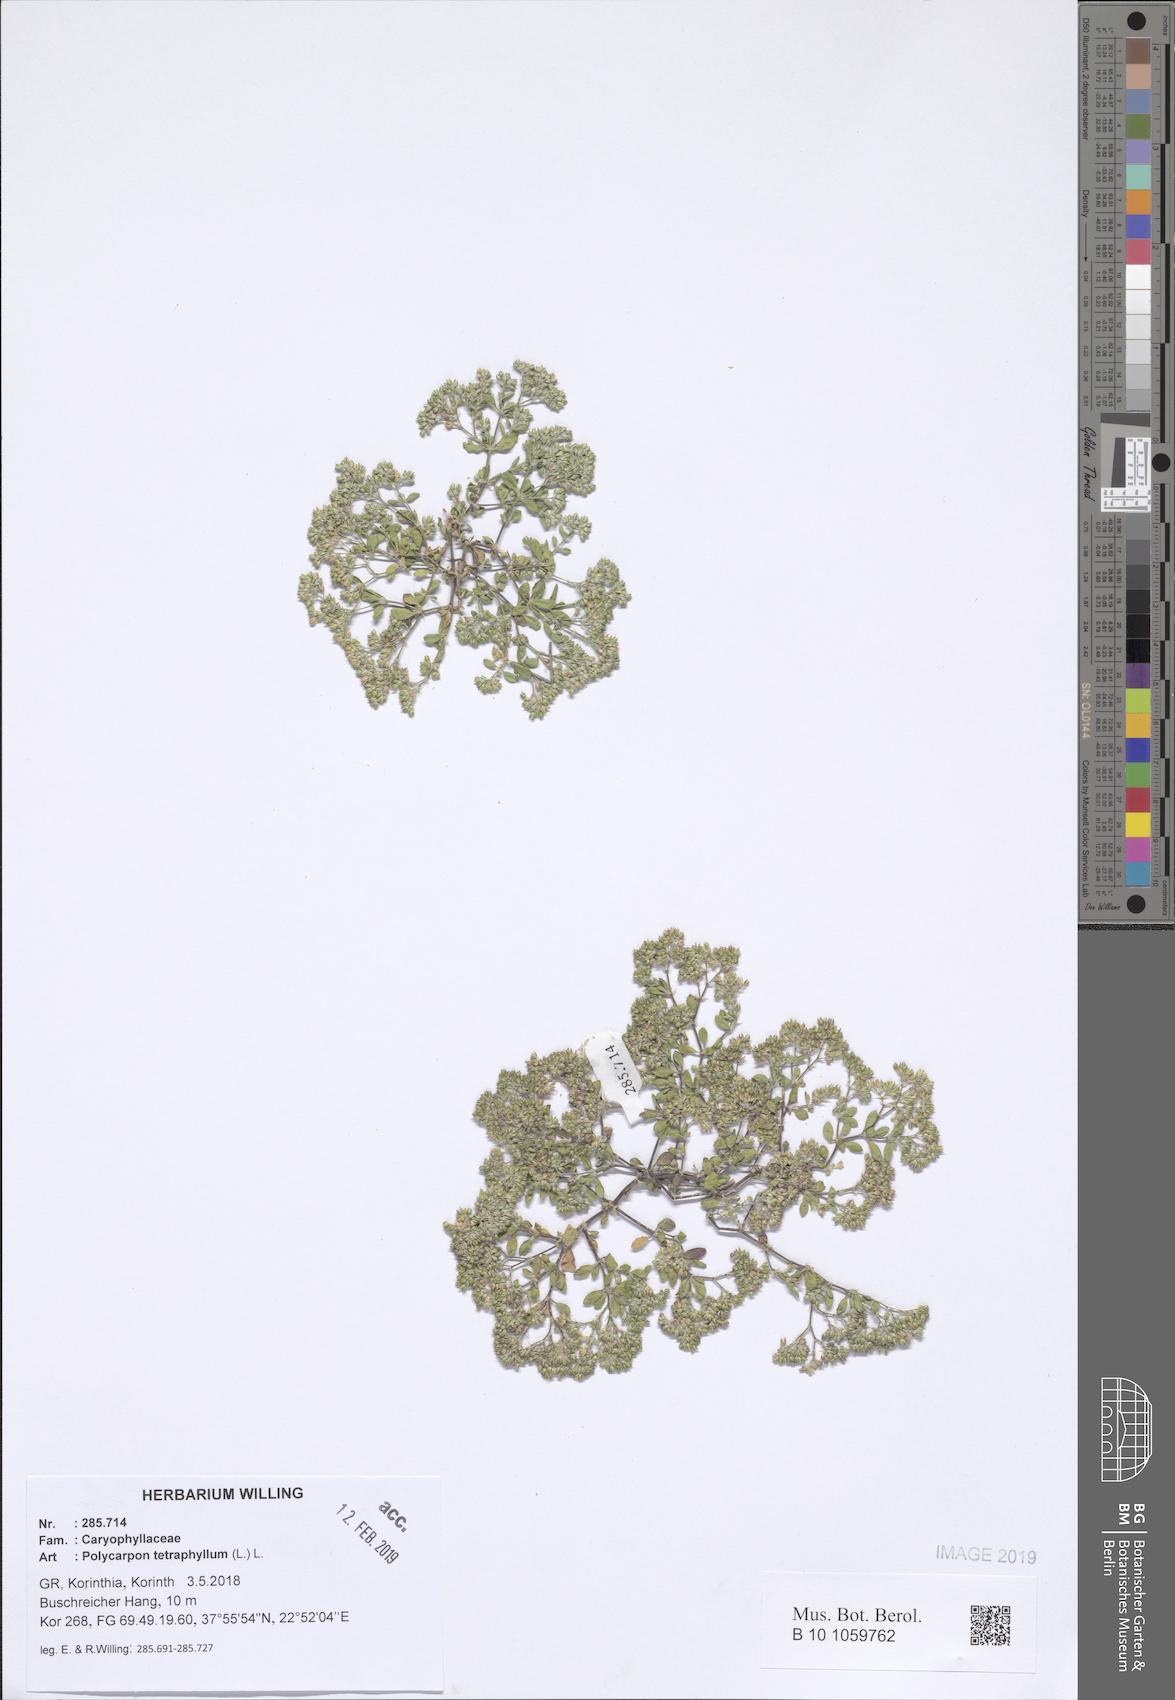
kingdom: Plantae
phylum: Tracheophyta
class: Magnoliopsida
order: Caryophyllales
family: Caryophyllaceae
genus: Polycarpon
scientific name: Polycarpon tetraphyllum
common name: Four-leaved all-seed
